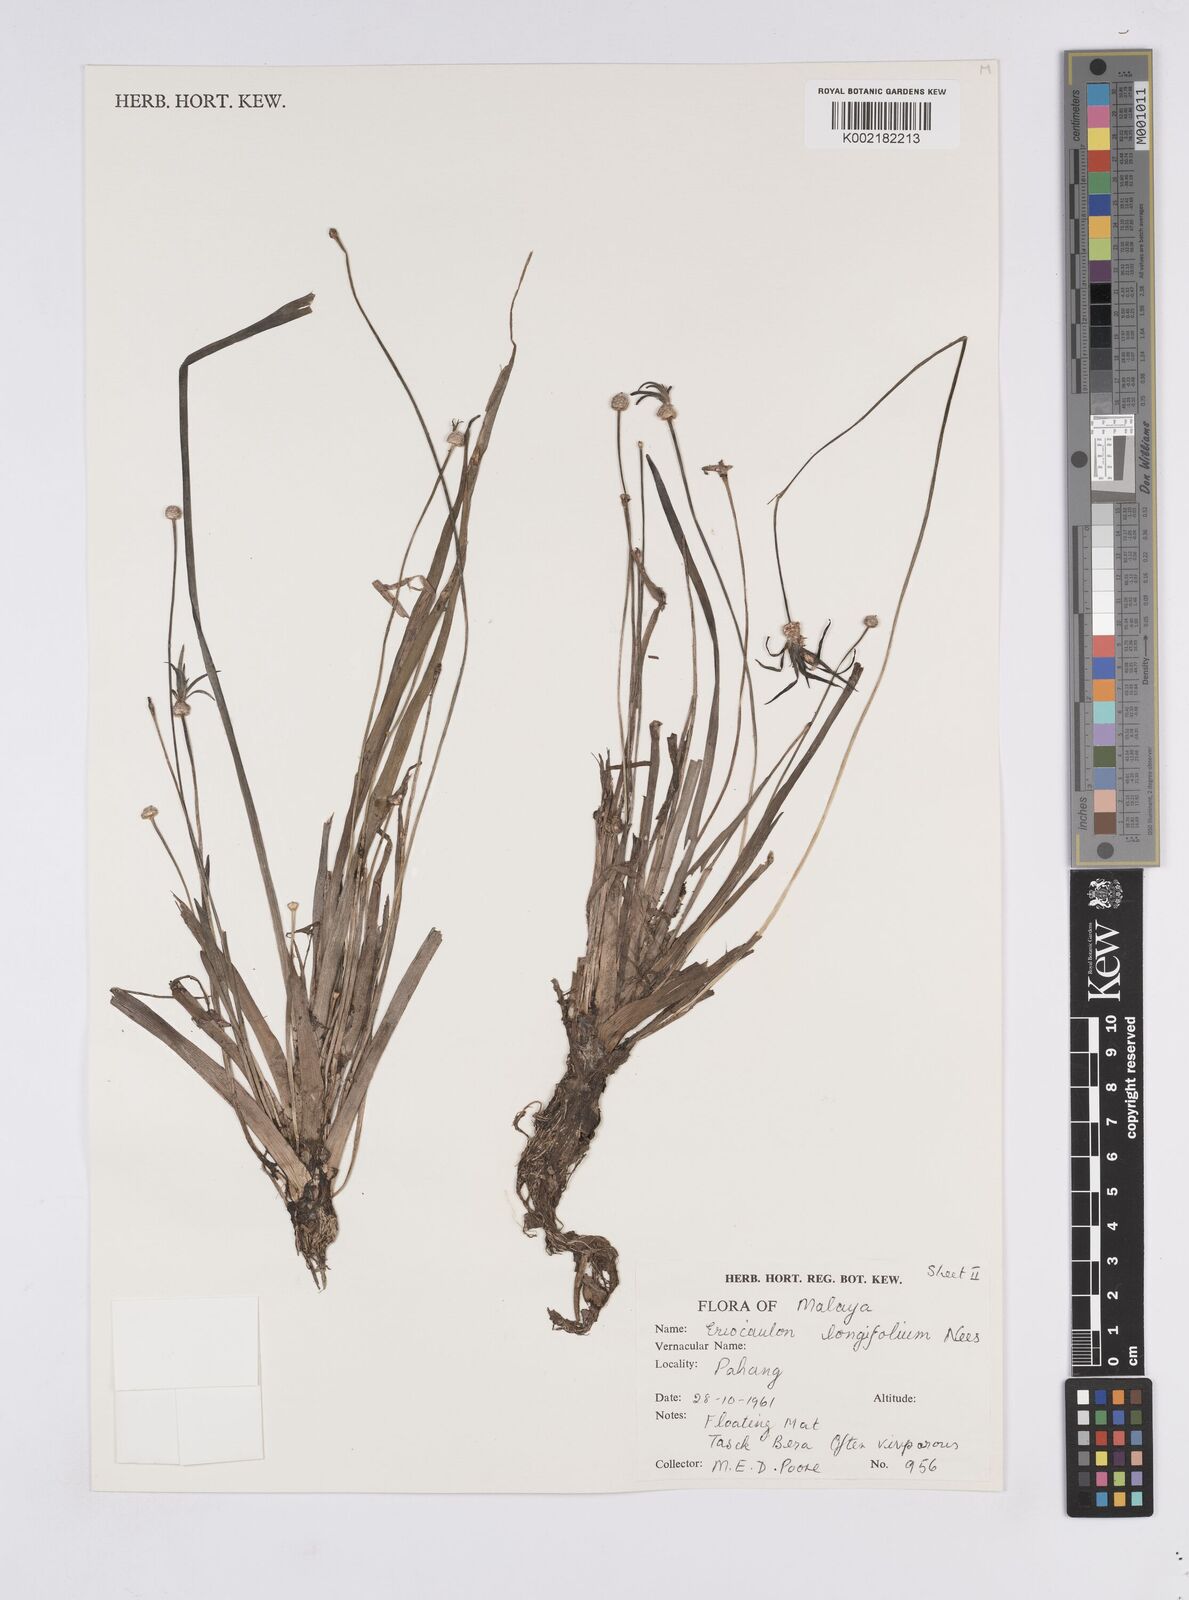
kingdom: Plantae
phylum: Tracheophyta
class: Liliopsida
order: Poales
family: Eriocaulaceae
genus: Eriocaulon
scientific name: Eriocaulon willdenovianum
